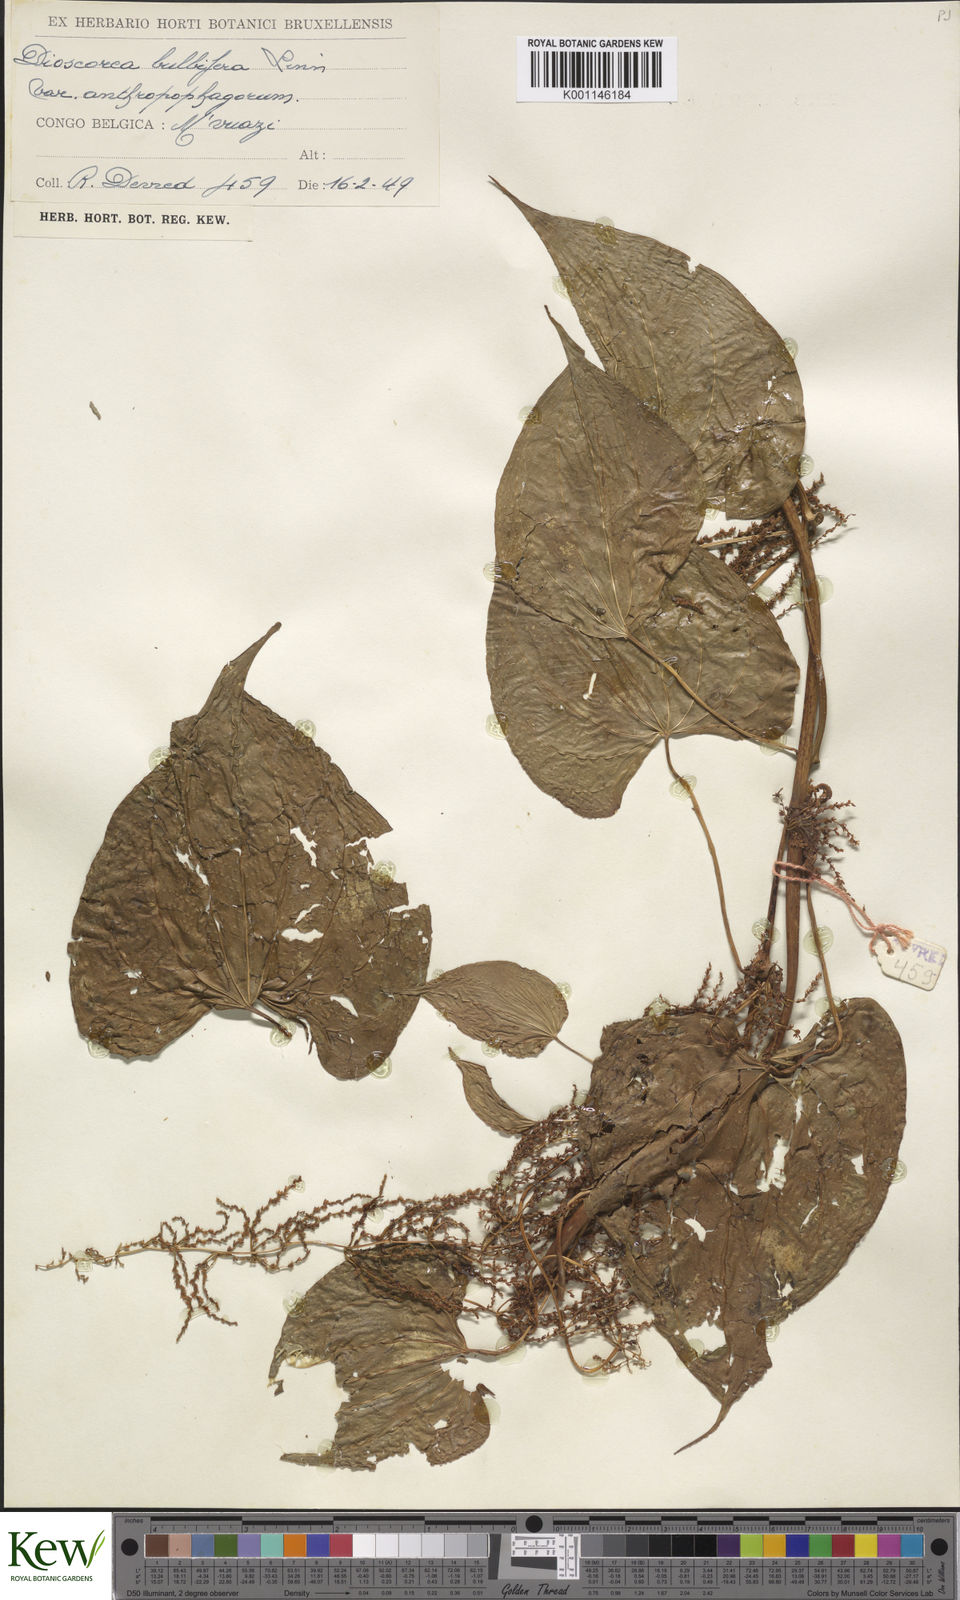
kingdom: Plantae
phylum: Tracheophyta
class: Liliopsida
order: Dioscoreales
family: Dioscoreaceae
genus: Dioscorea
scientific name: Dioscorea bulbifera
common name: Air yam
